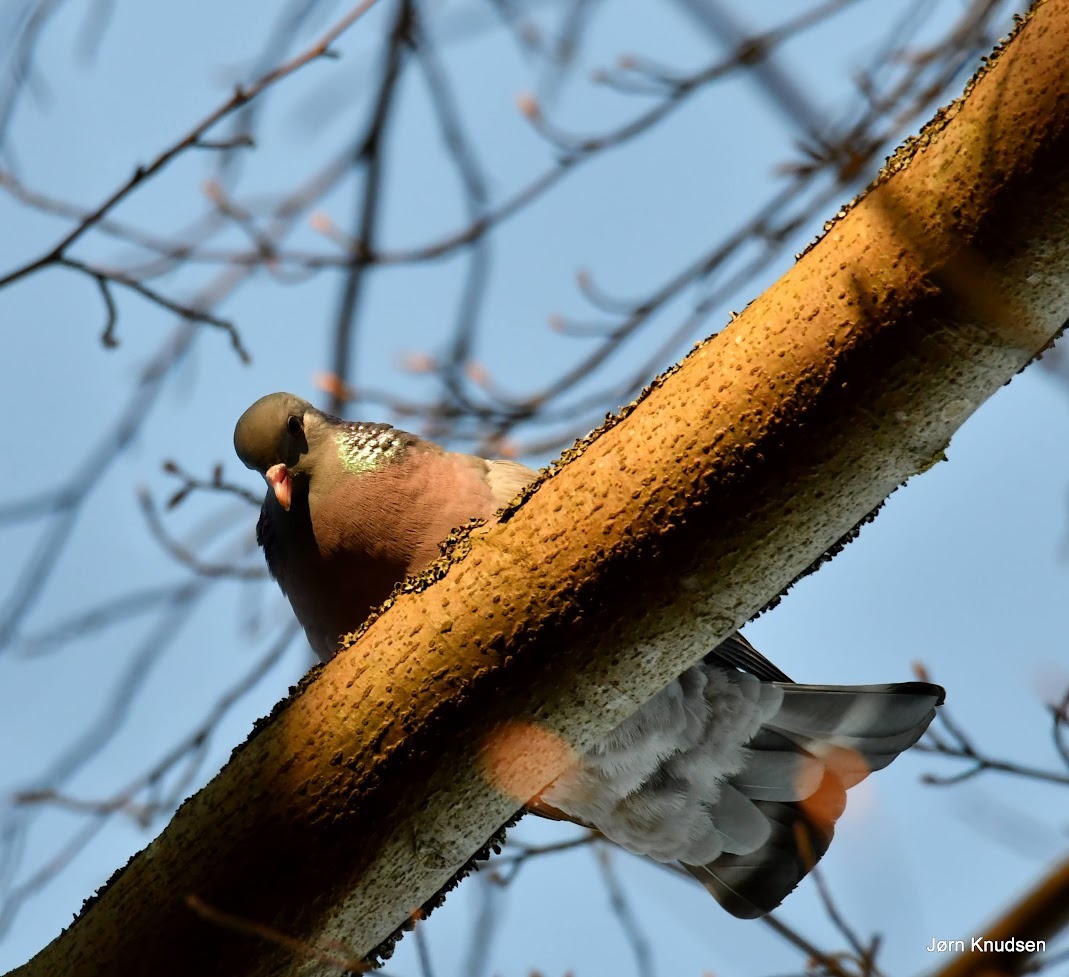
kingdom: Animalia
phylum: Chordata
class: Aves
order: Columbiformes
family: Columbidae
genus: Columba
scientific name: Columba oenas
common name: Huldue
